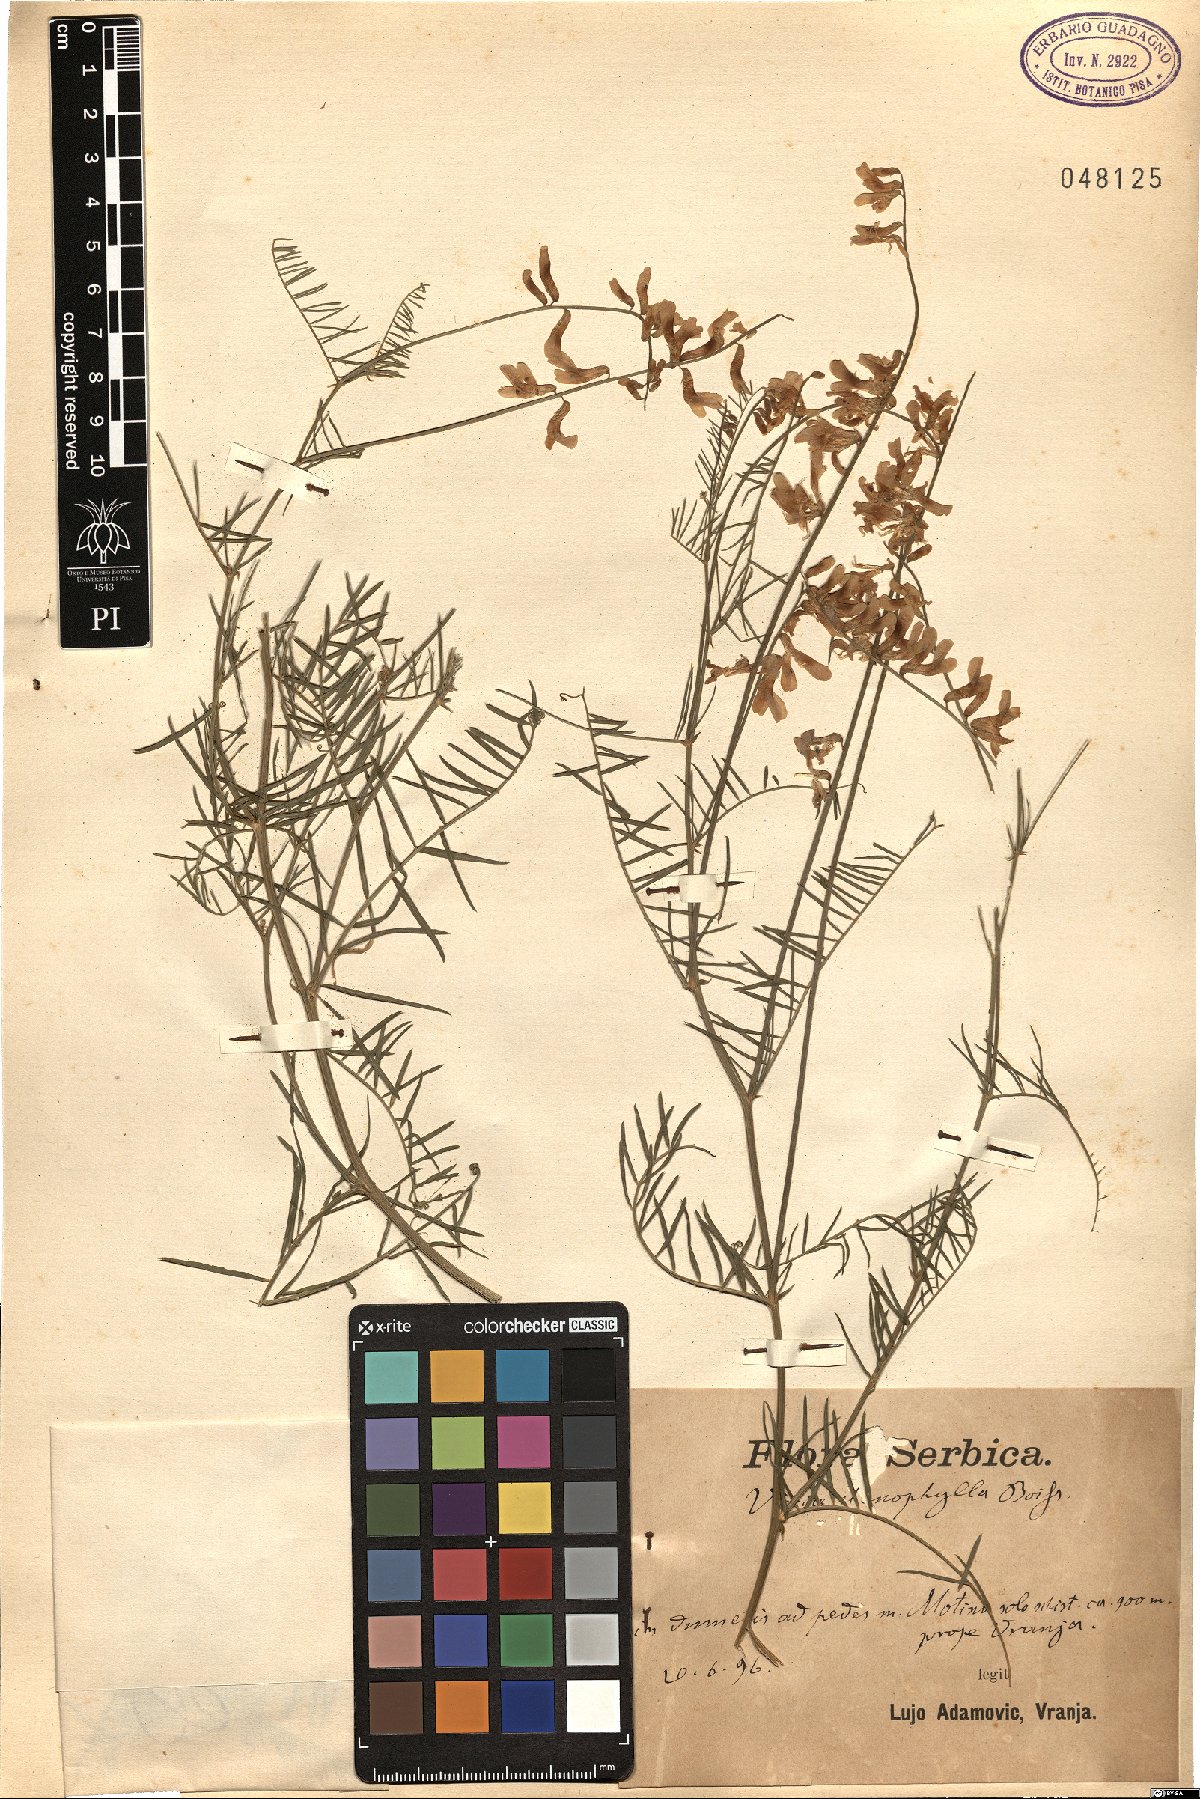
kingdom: Plantae
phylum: Tracheophyta
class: Magnoliopsida
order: Fabales
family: Fabaceae
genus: Vicia
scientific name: Vicia sativa
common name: Garden vetch
